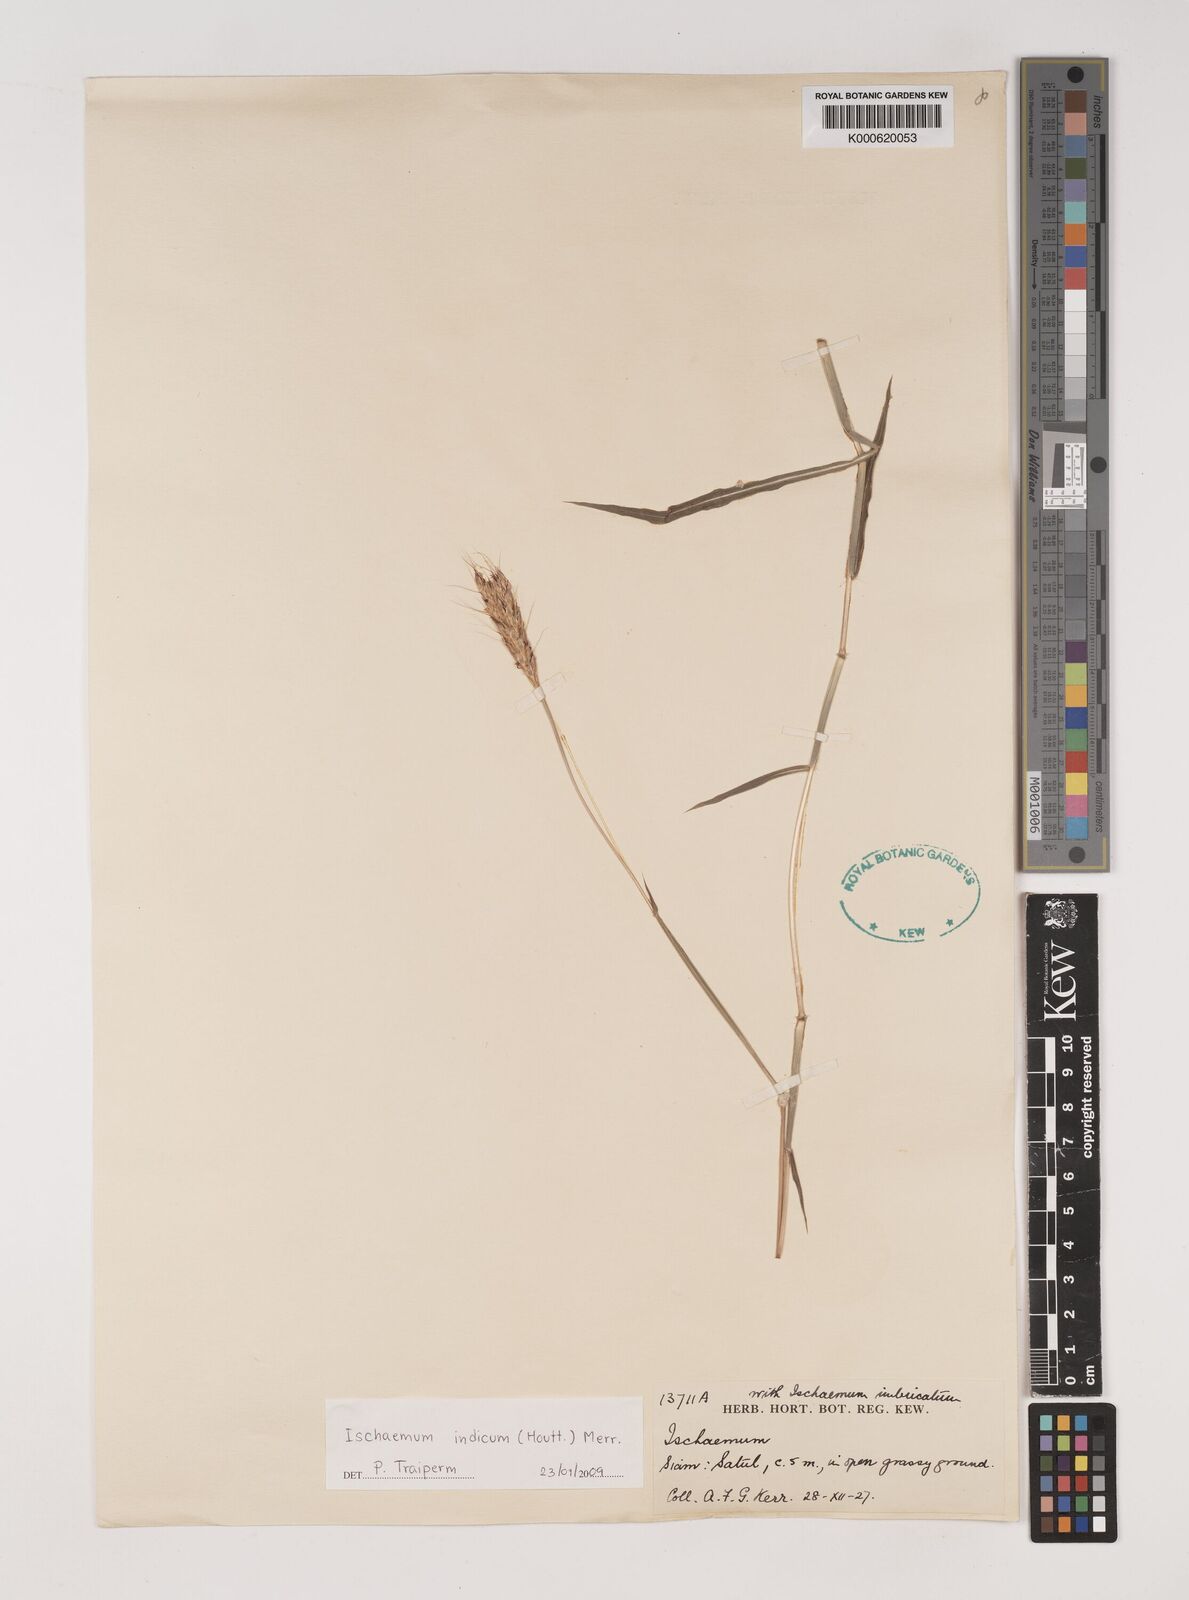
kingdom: Plantae
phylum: Tracheophyta
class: Liliopsida
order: Poales
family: Poaceae
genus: Polytrias
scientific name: Polytrias indica
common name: Indian murainagrass
